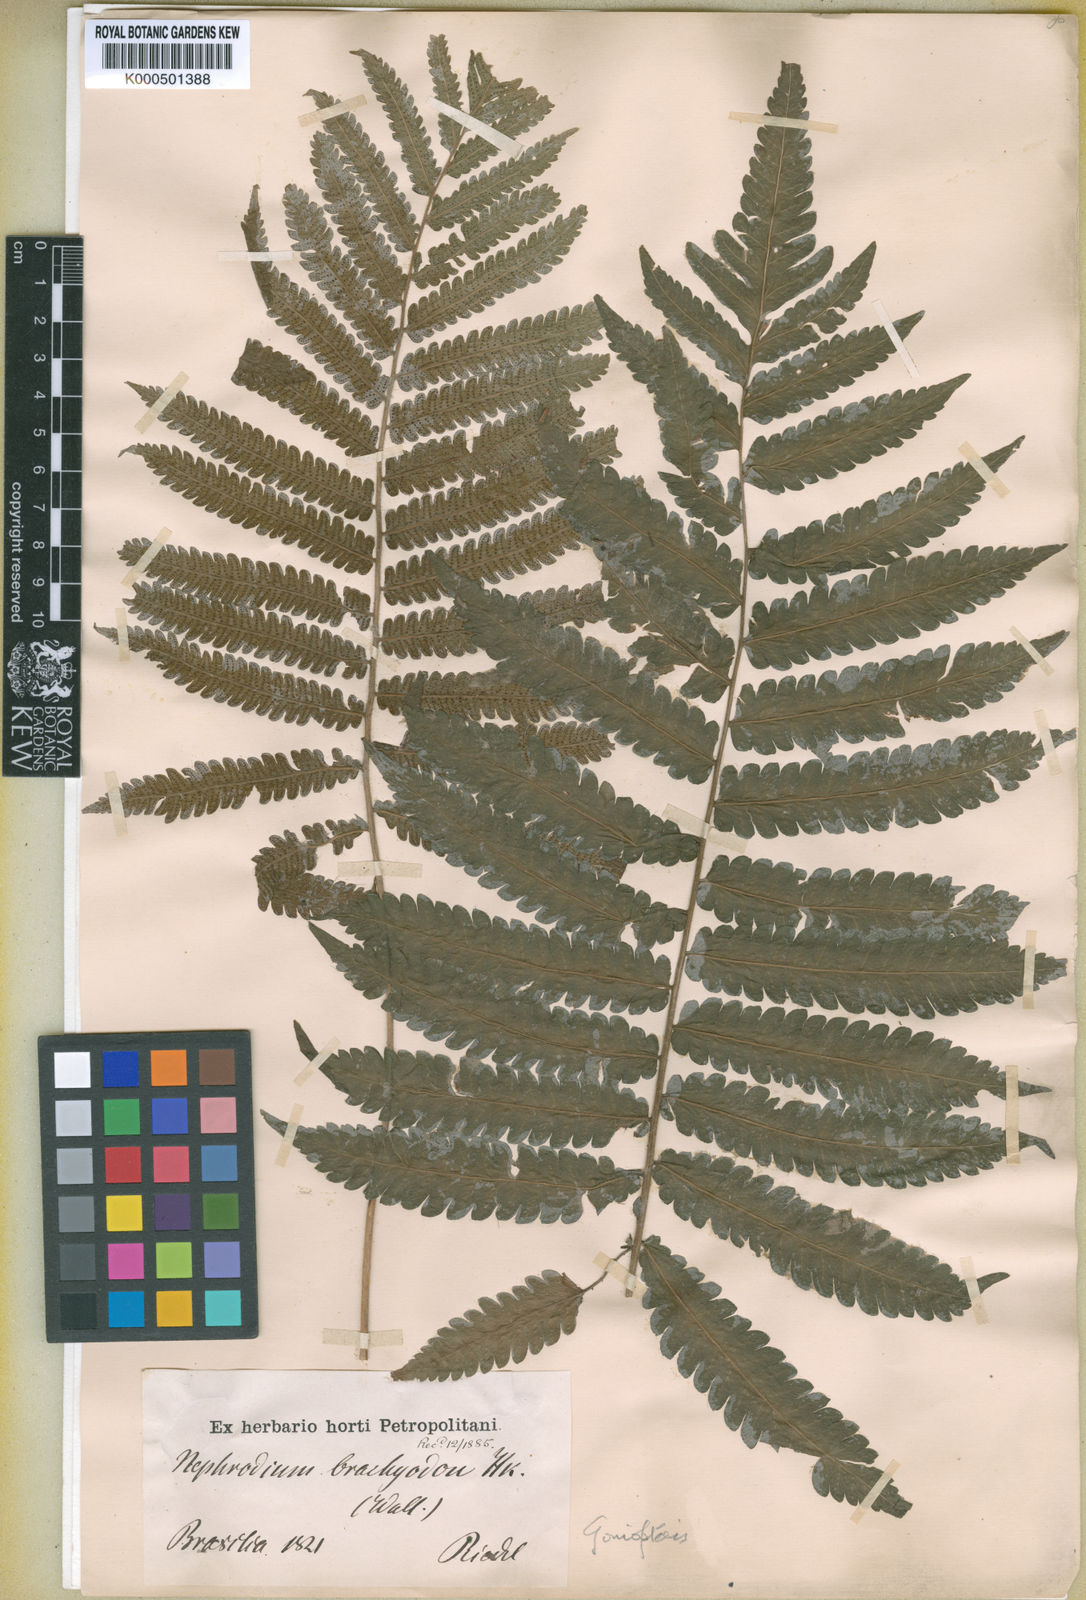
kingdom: Plantae
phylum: Tracheophyta
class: Polypodiopsida
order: Polypodiales
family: Thelypteridaceae
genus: Goniopteris
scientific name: Goniopteris
